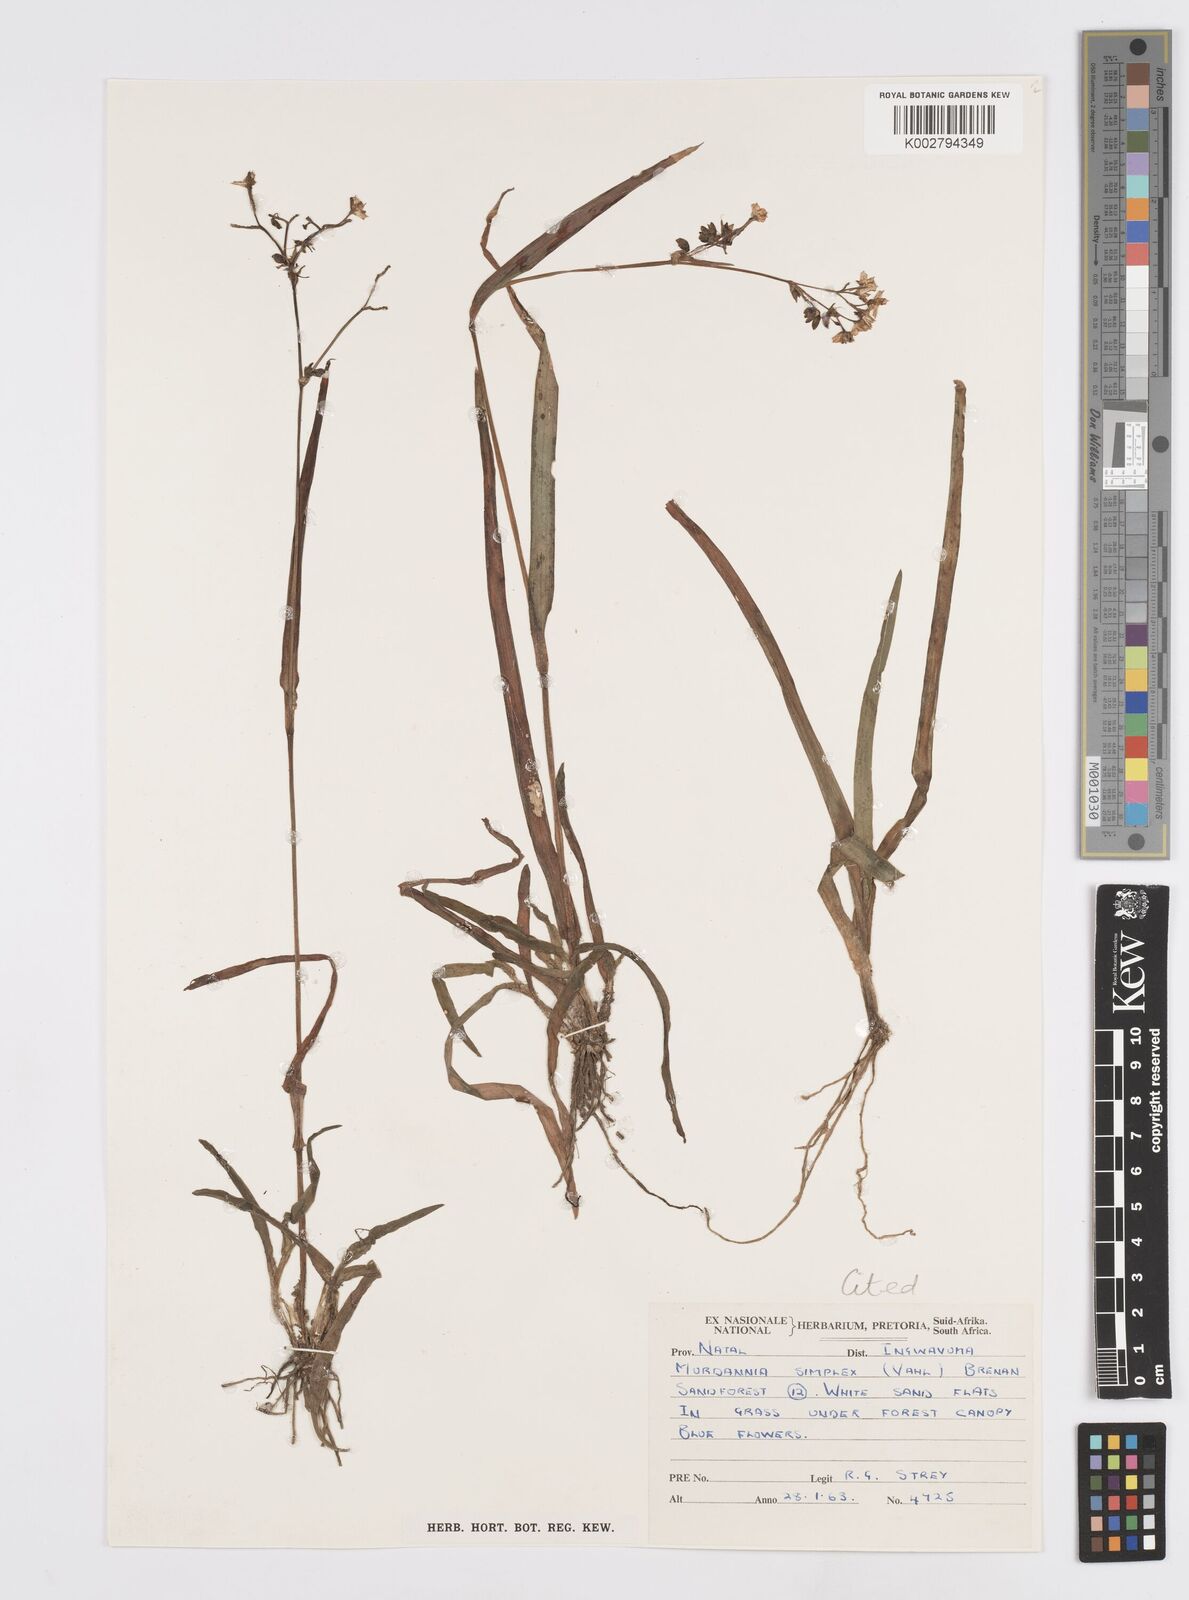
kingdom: Plantae
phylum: Tracheophyta
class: Liliopsida
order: Commelinales
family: Commelinaceae
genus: Murdannia
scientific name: Murdannia simplex
